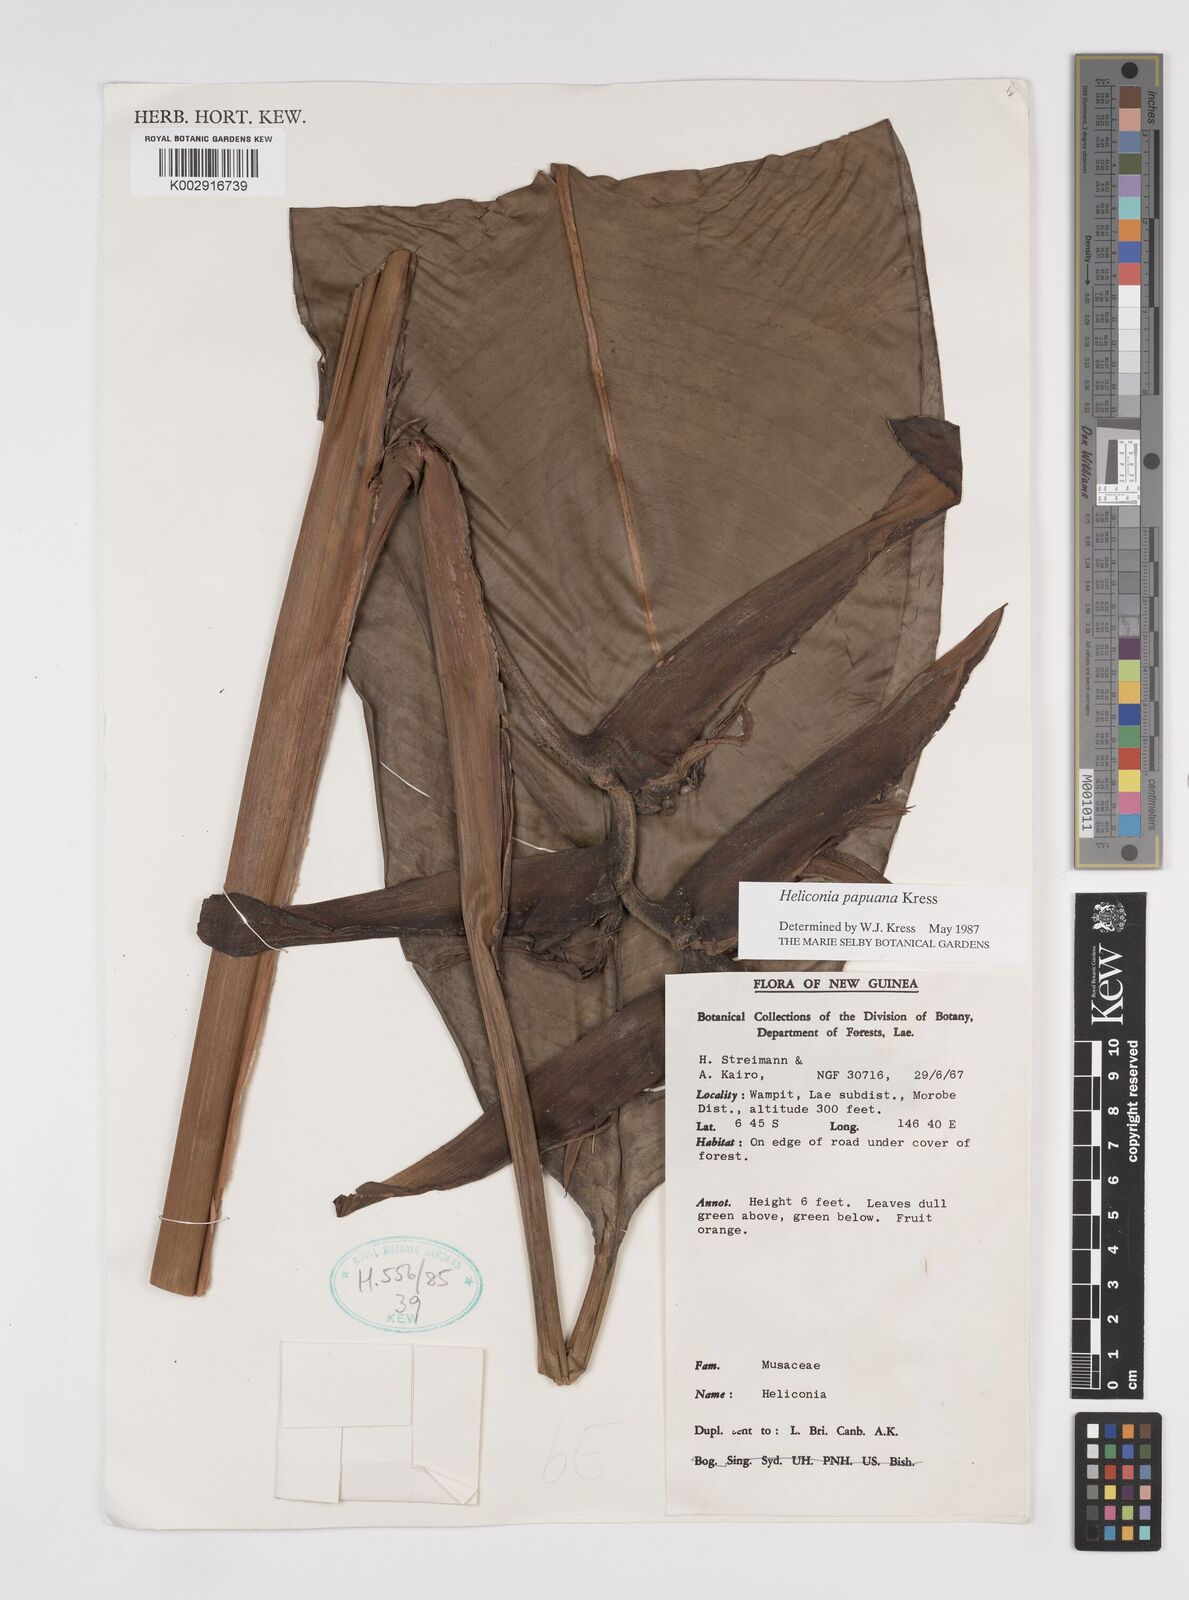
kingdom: Plantae
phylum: Tracheophyta
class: Liliopsida
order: Zingiberales
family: Heliconiaceae
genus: Heliconia
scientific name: Heliconia papuana
